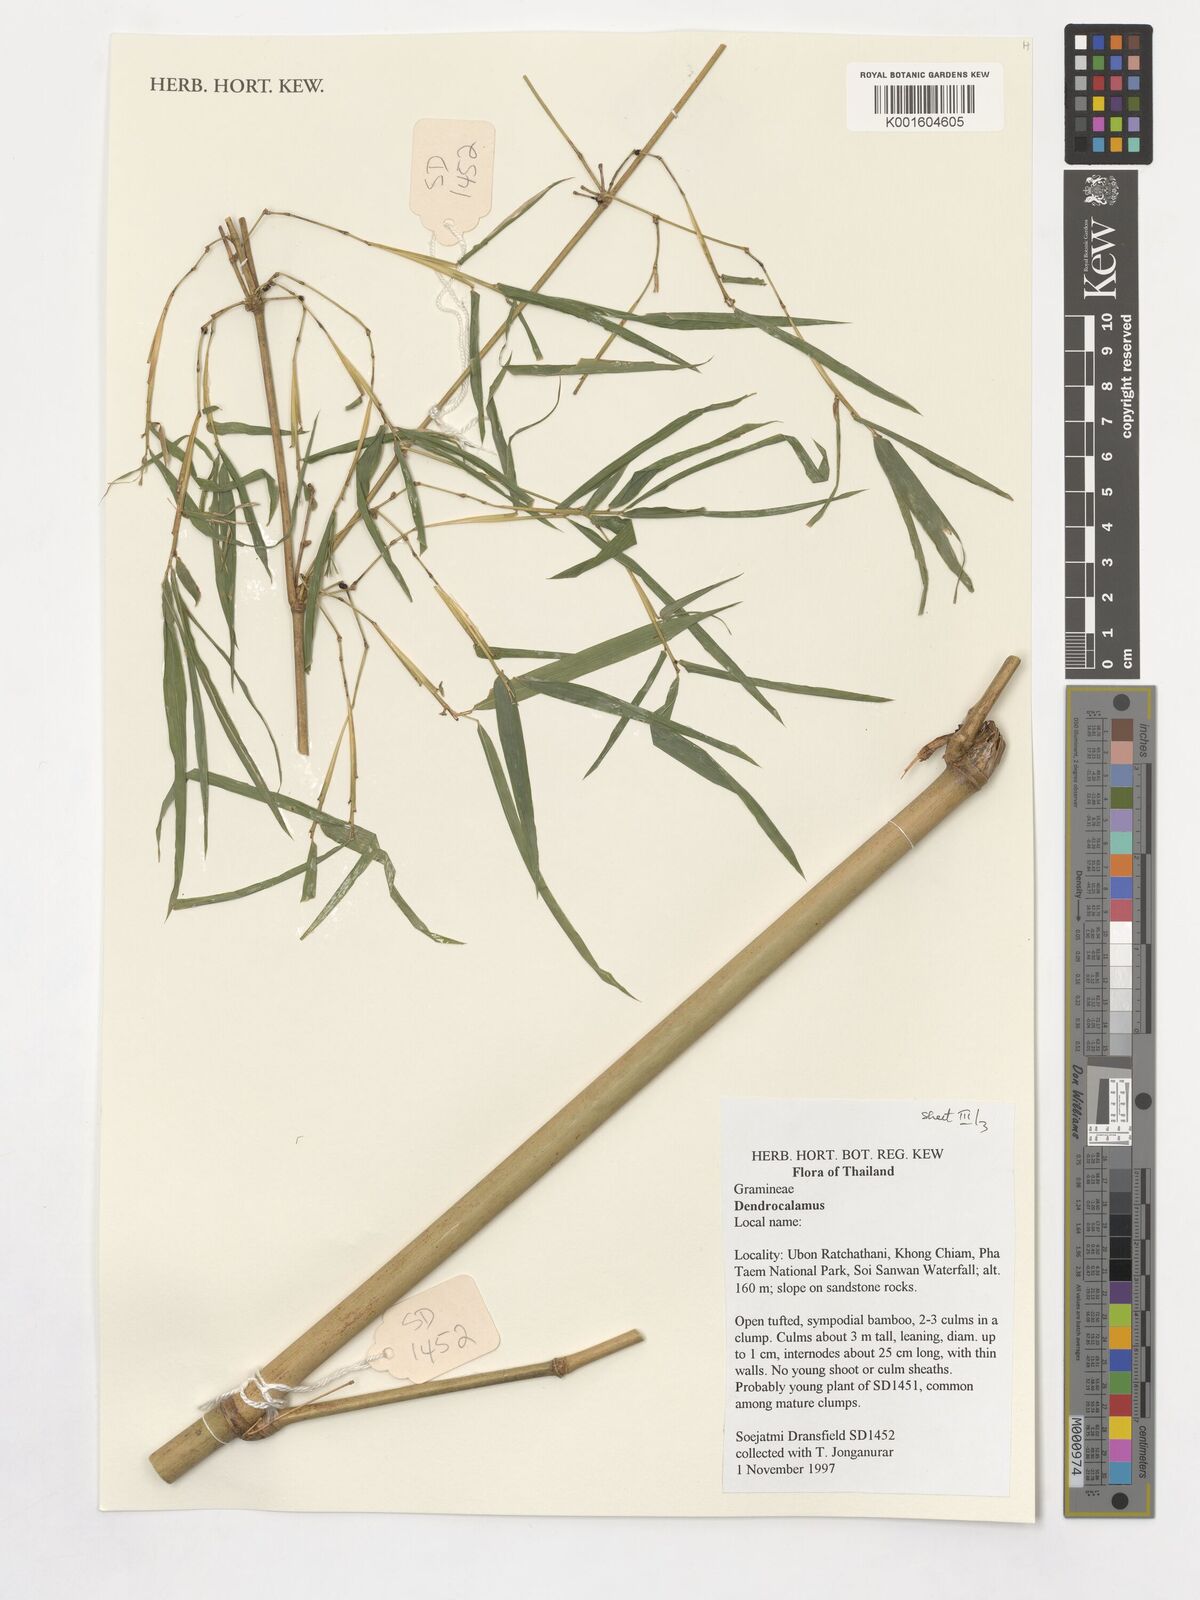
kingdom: Plantae
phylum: Tracheophyta
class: Liliopsida
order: Poales
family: Poaceae
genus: Dendrocalamus
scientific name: Dendrocalamus
